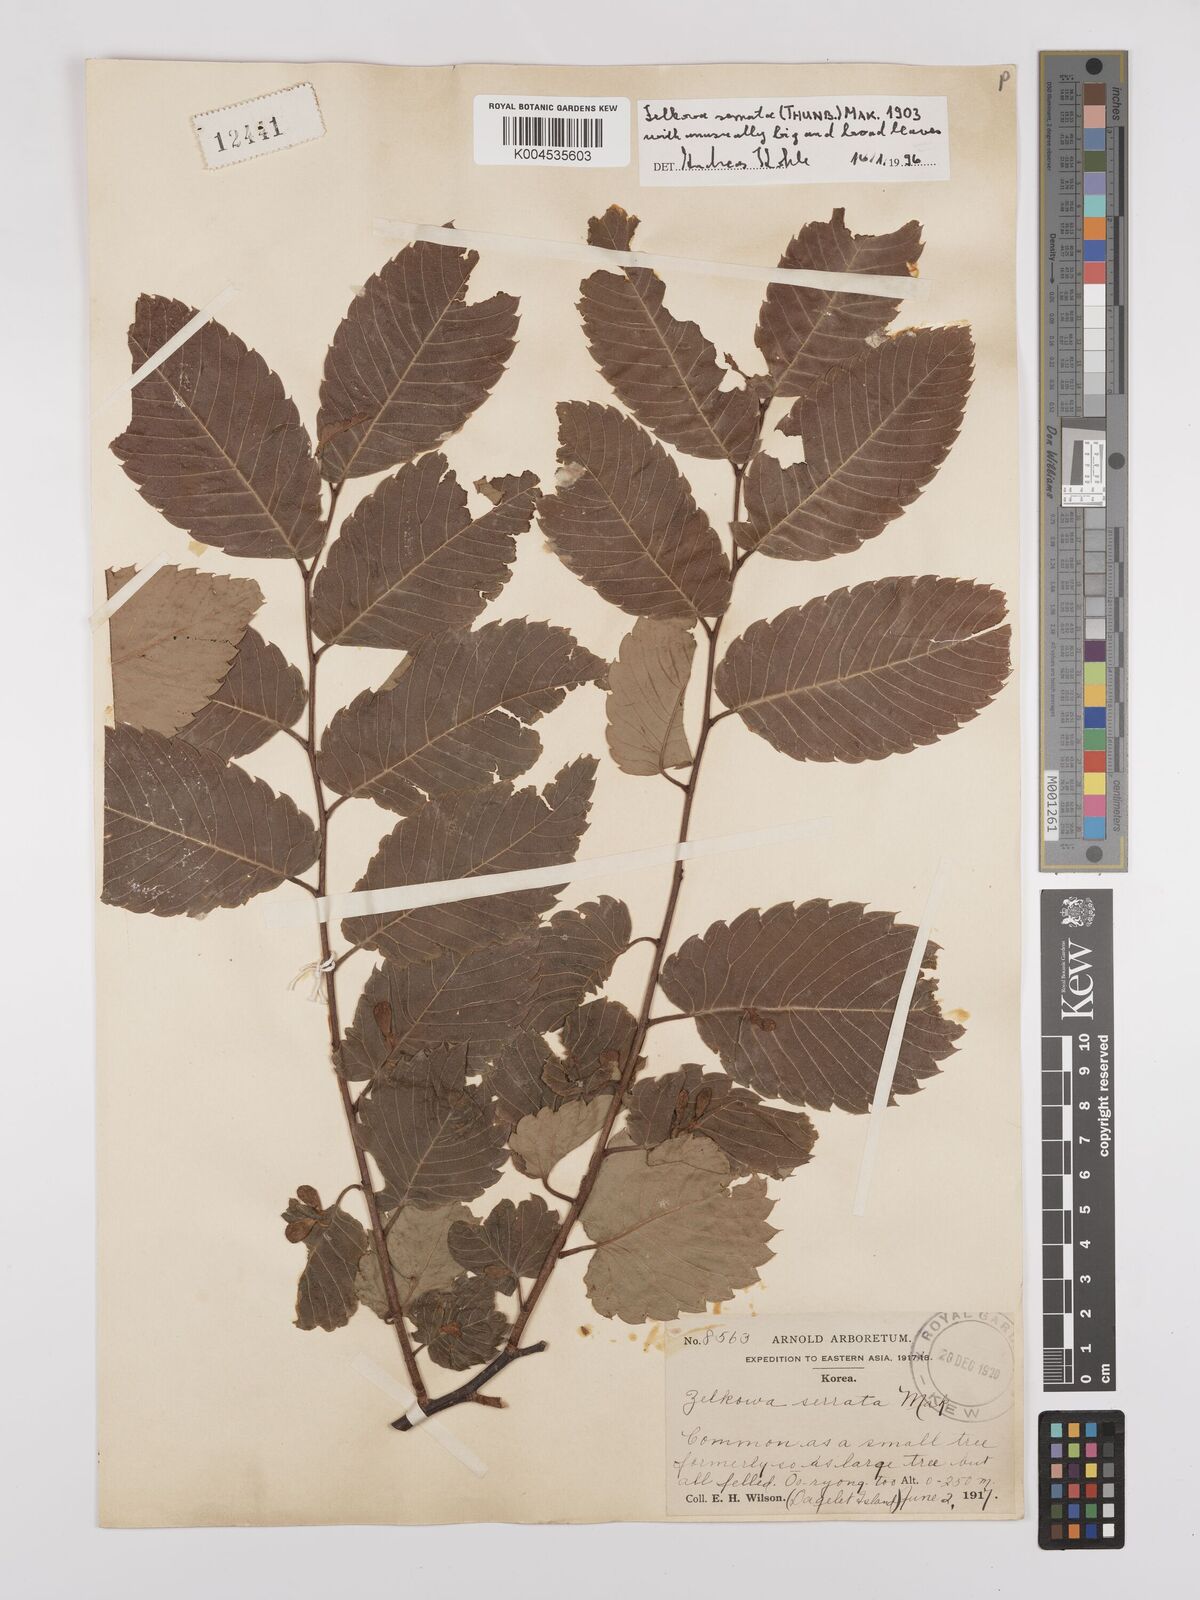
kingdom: Plantae
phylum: Tracheophyta
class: Magnoliopsida
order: Rosales
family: Ulmaceae
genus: Zelkova
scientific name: Zelkova serrata
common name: Japanese zelkova
